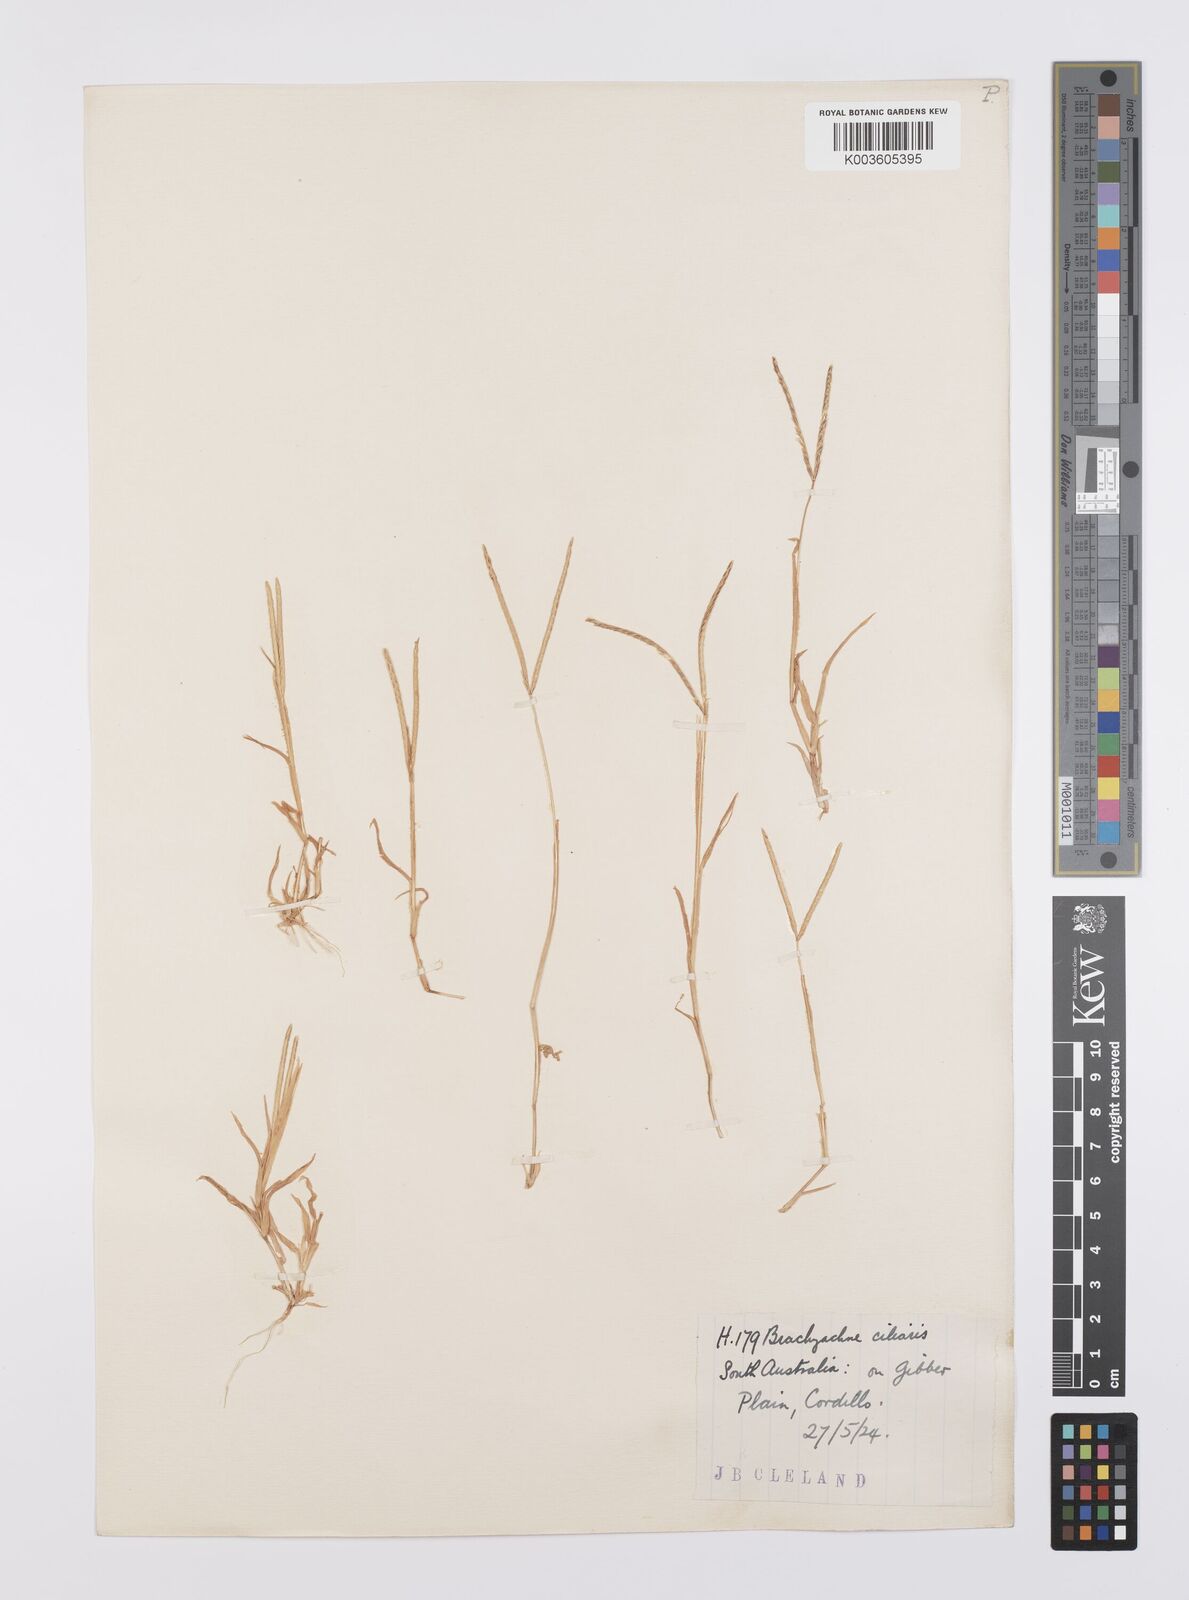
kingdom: Plantae
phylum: Tracheophyta
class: Liliopsida
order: Poales
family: Poaceae
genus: Cynodon
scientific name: Cynodon simonii
